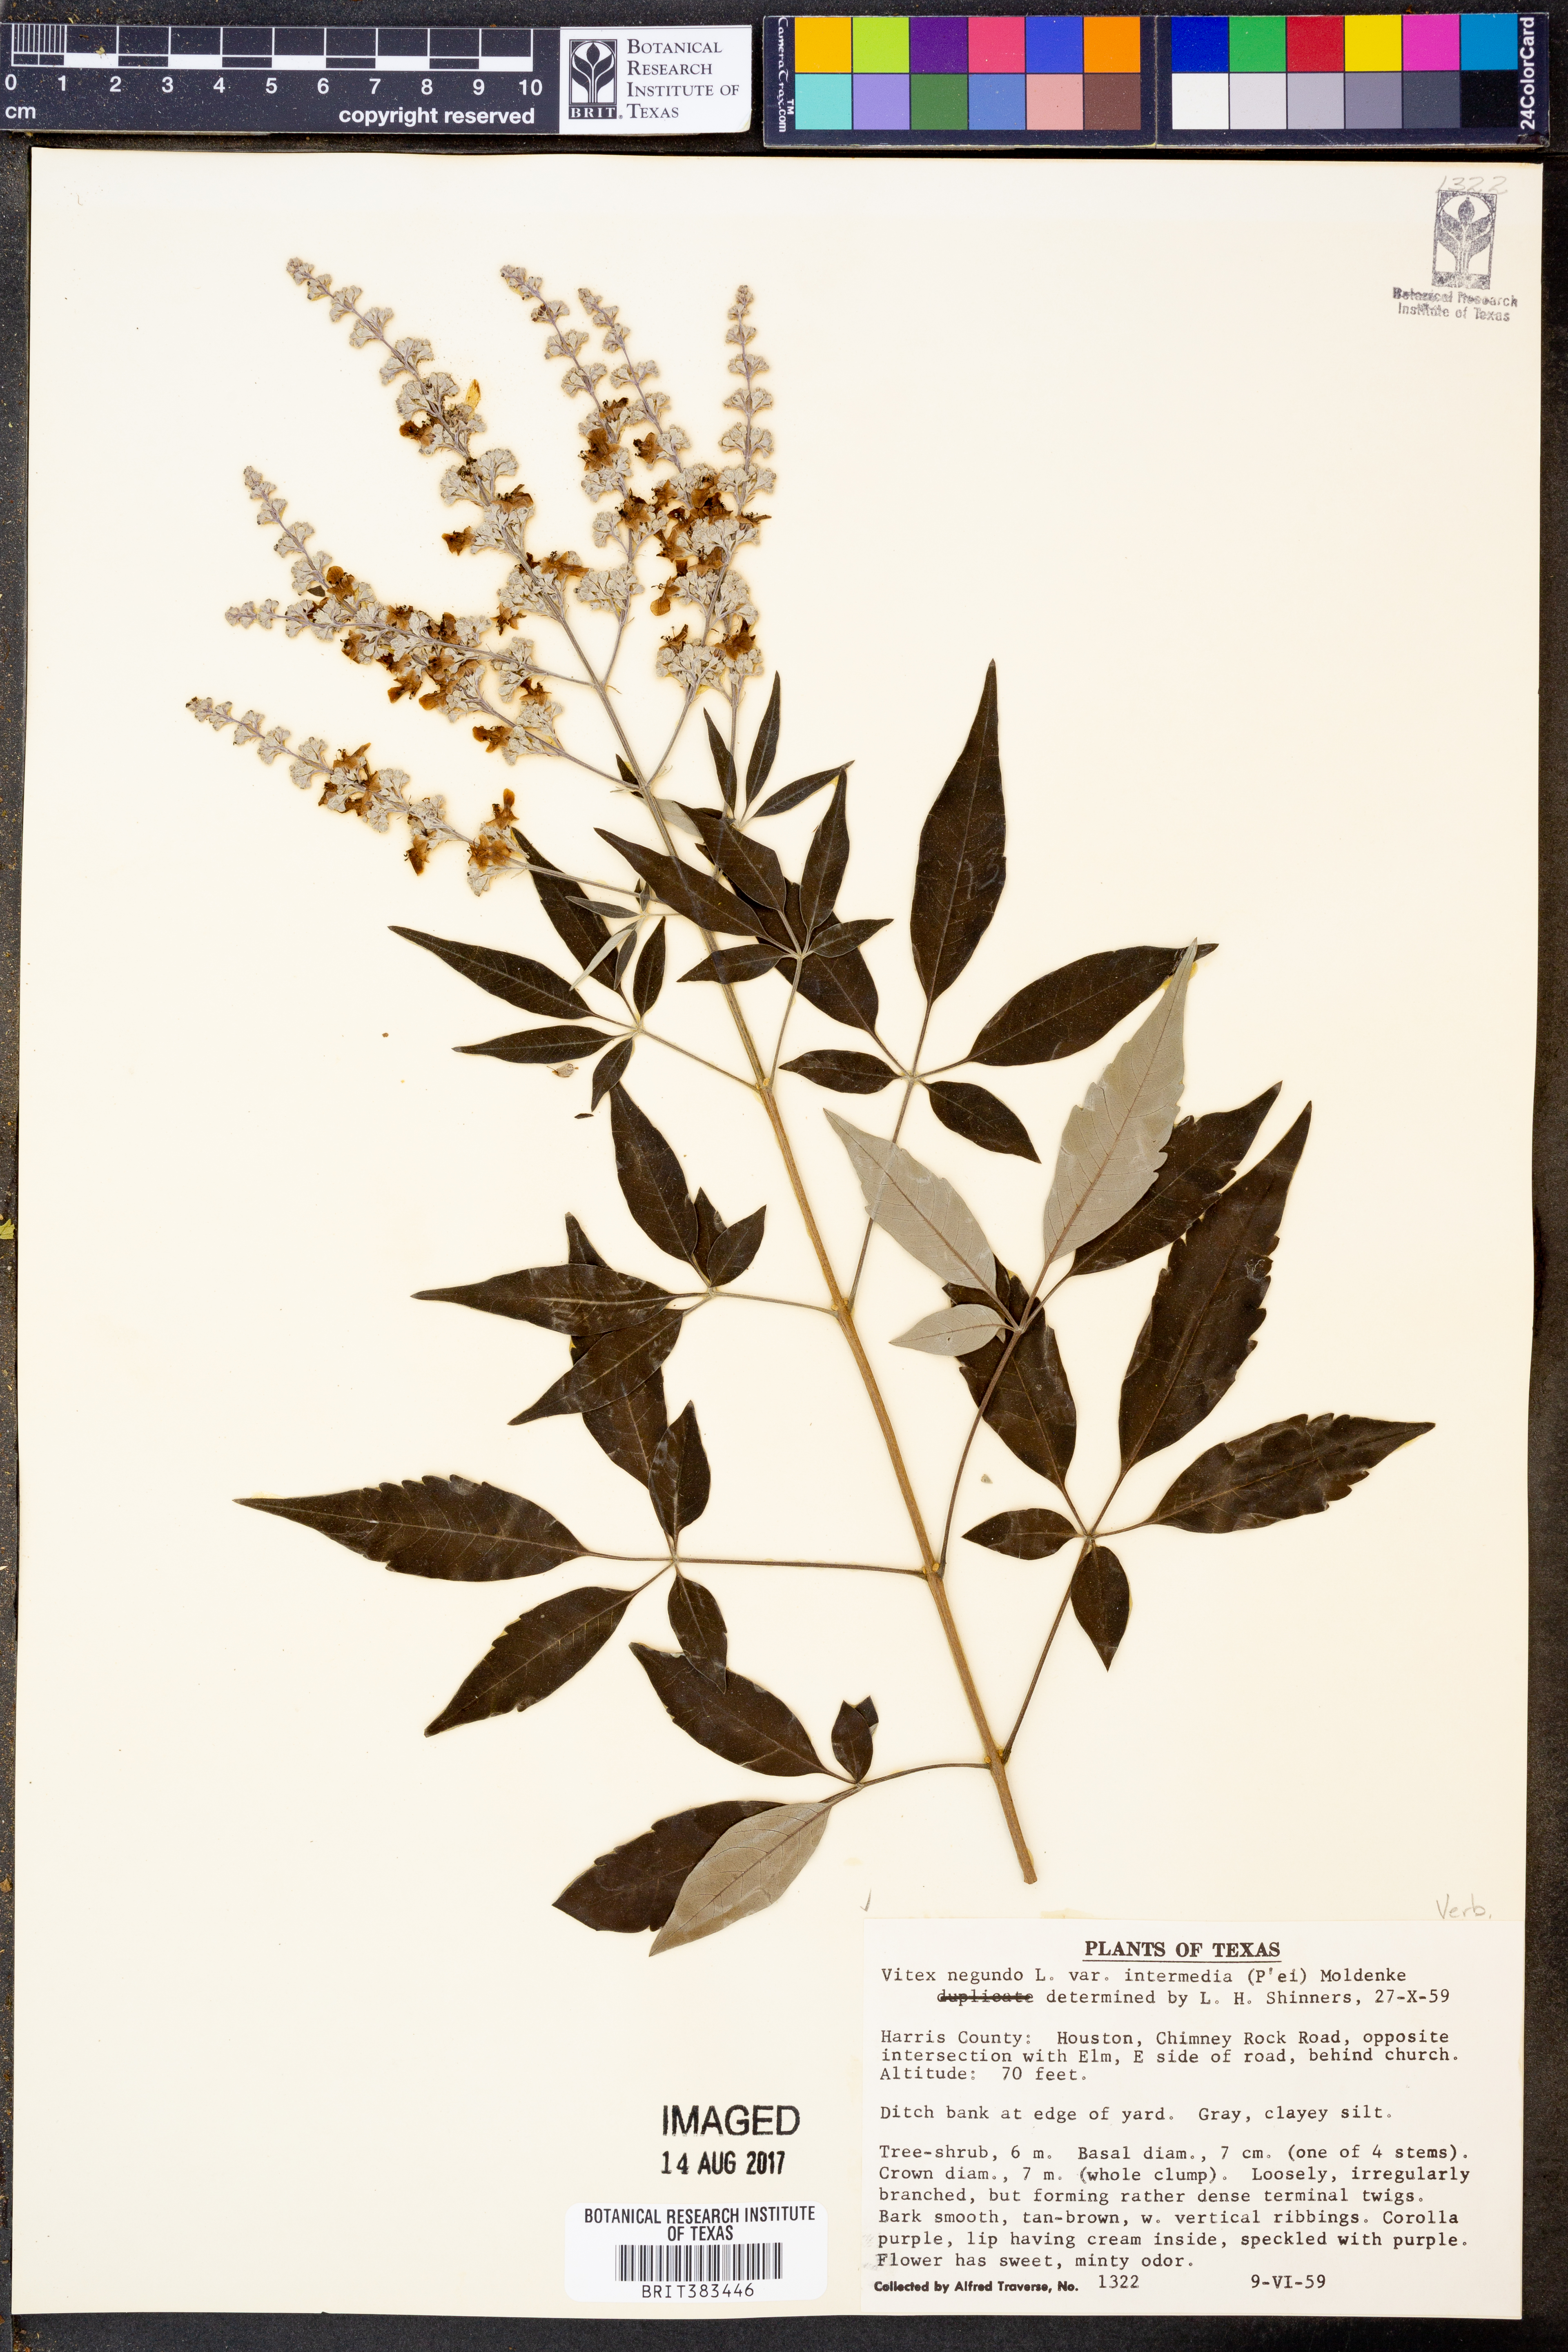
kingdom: Plantae
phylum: Tracheophyta
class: Magnoliopsida
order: Lamiales
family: Lamiaceae
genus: Vitex
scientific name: Vitex negundo
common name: Chinese chastetree
